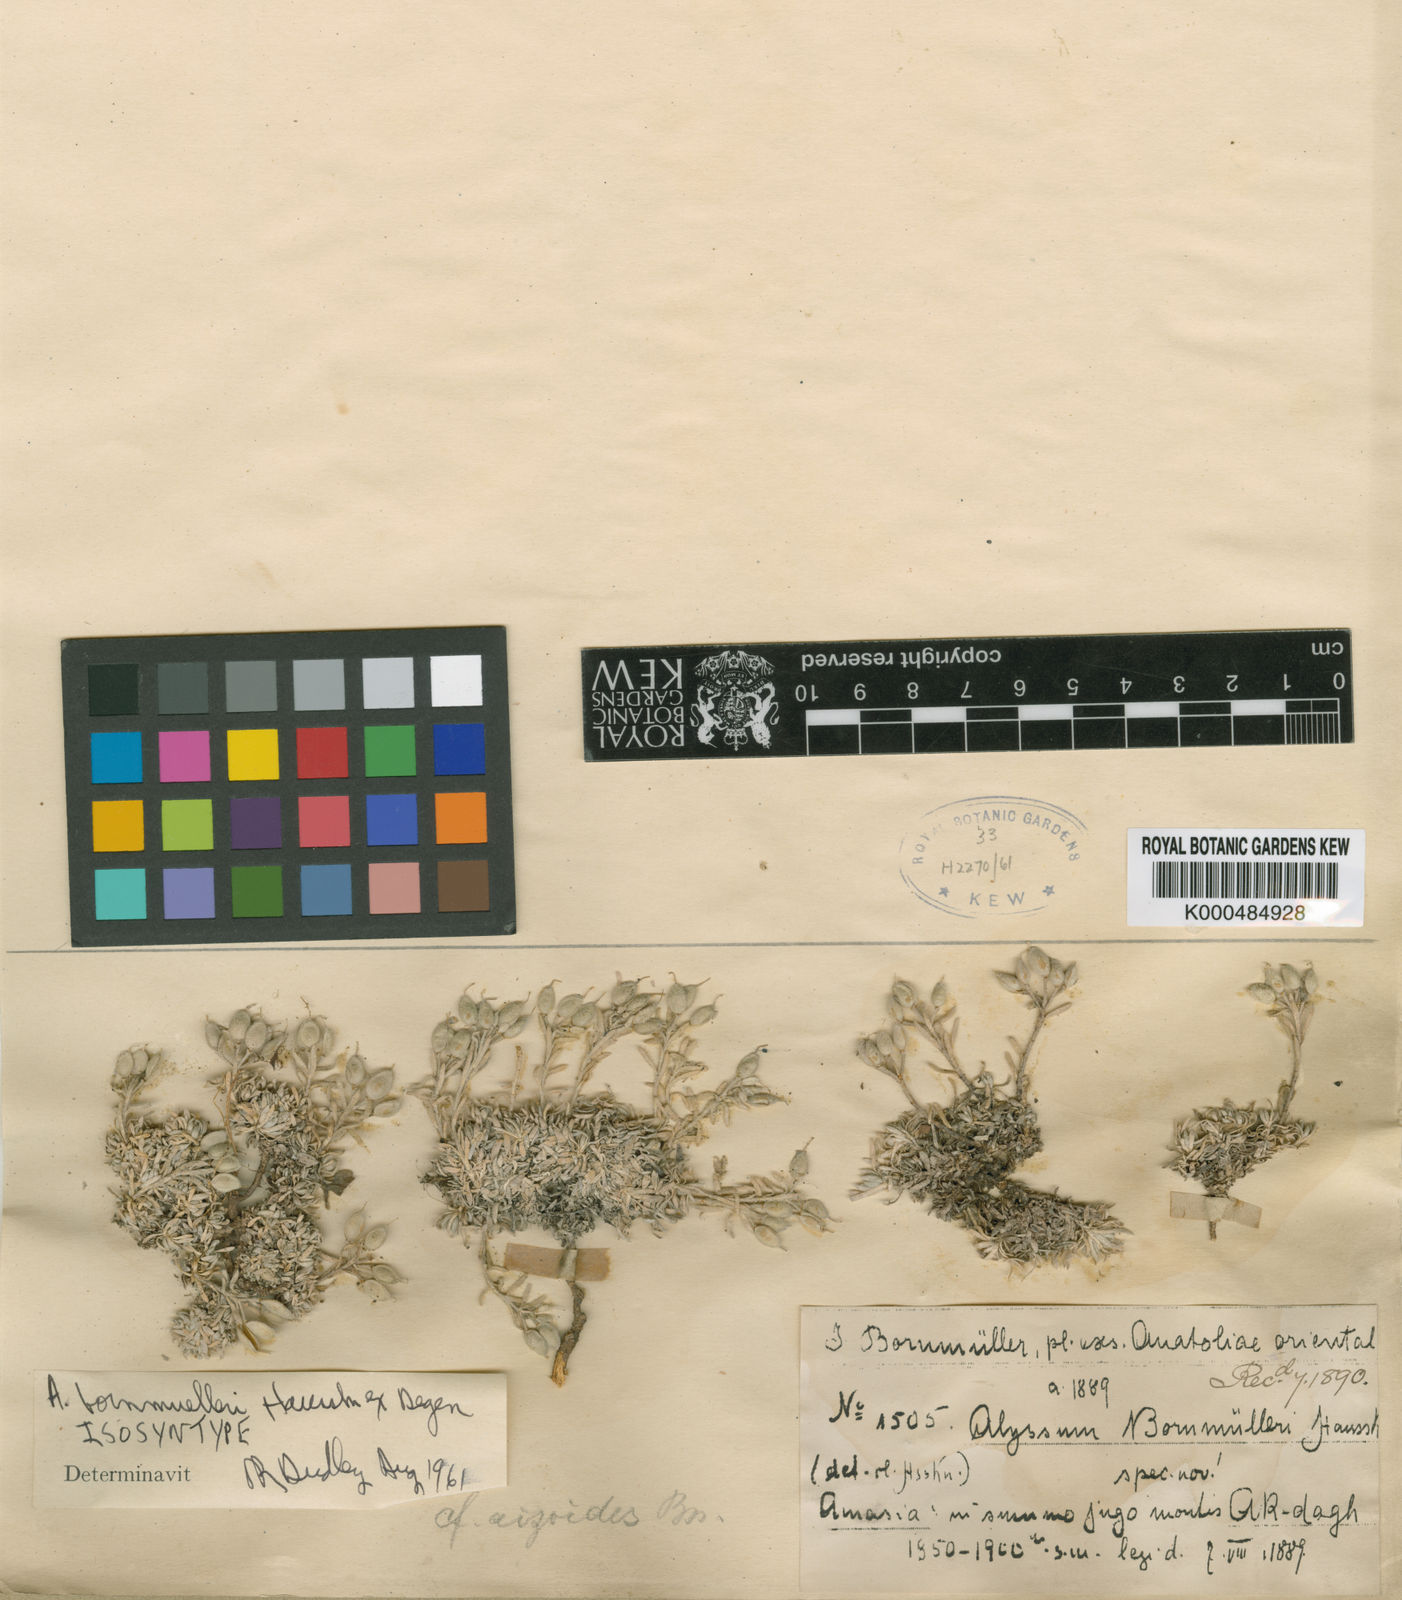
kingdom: Plantae
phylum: Tracheophyta
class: Magnoliopsida
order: Brassicales
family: Brassicaceae
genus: Alyssum
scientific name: Alyssum bornmuelleri
